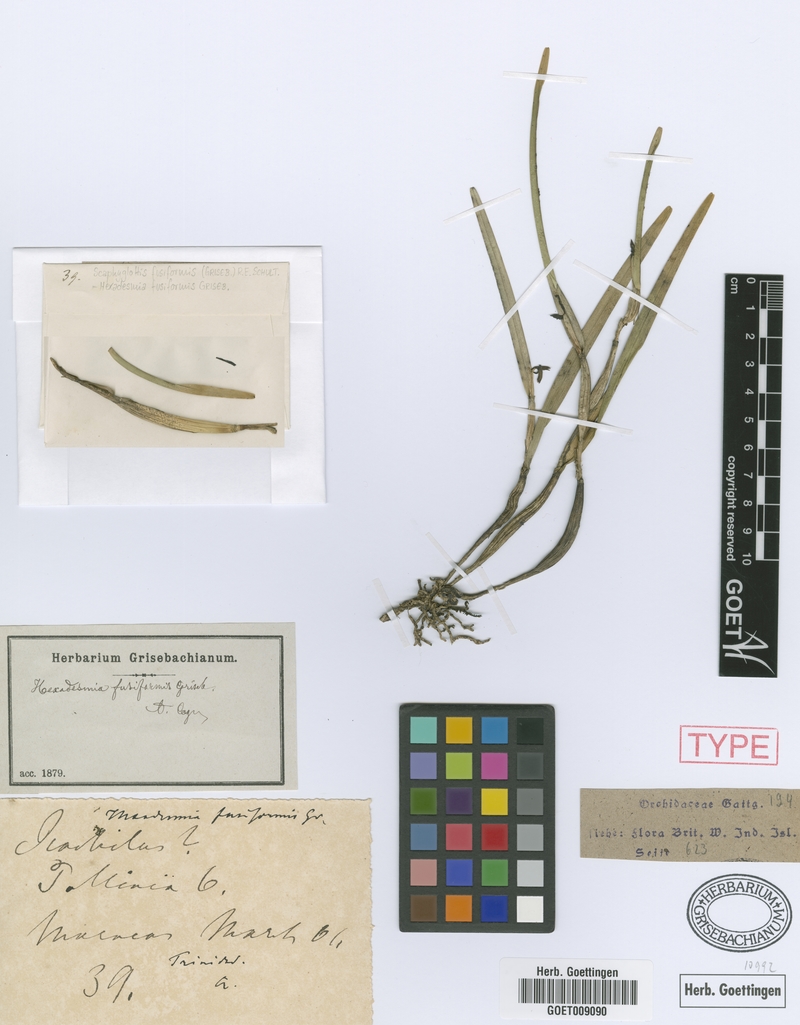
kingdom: Plantae
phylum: Tracheophyta
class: Liliopsida
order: Asparagales
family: Orchidaceae
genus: Scaphyglottis
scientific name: Scaphyglottis fusiformis
